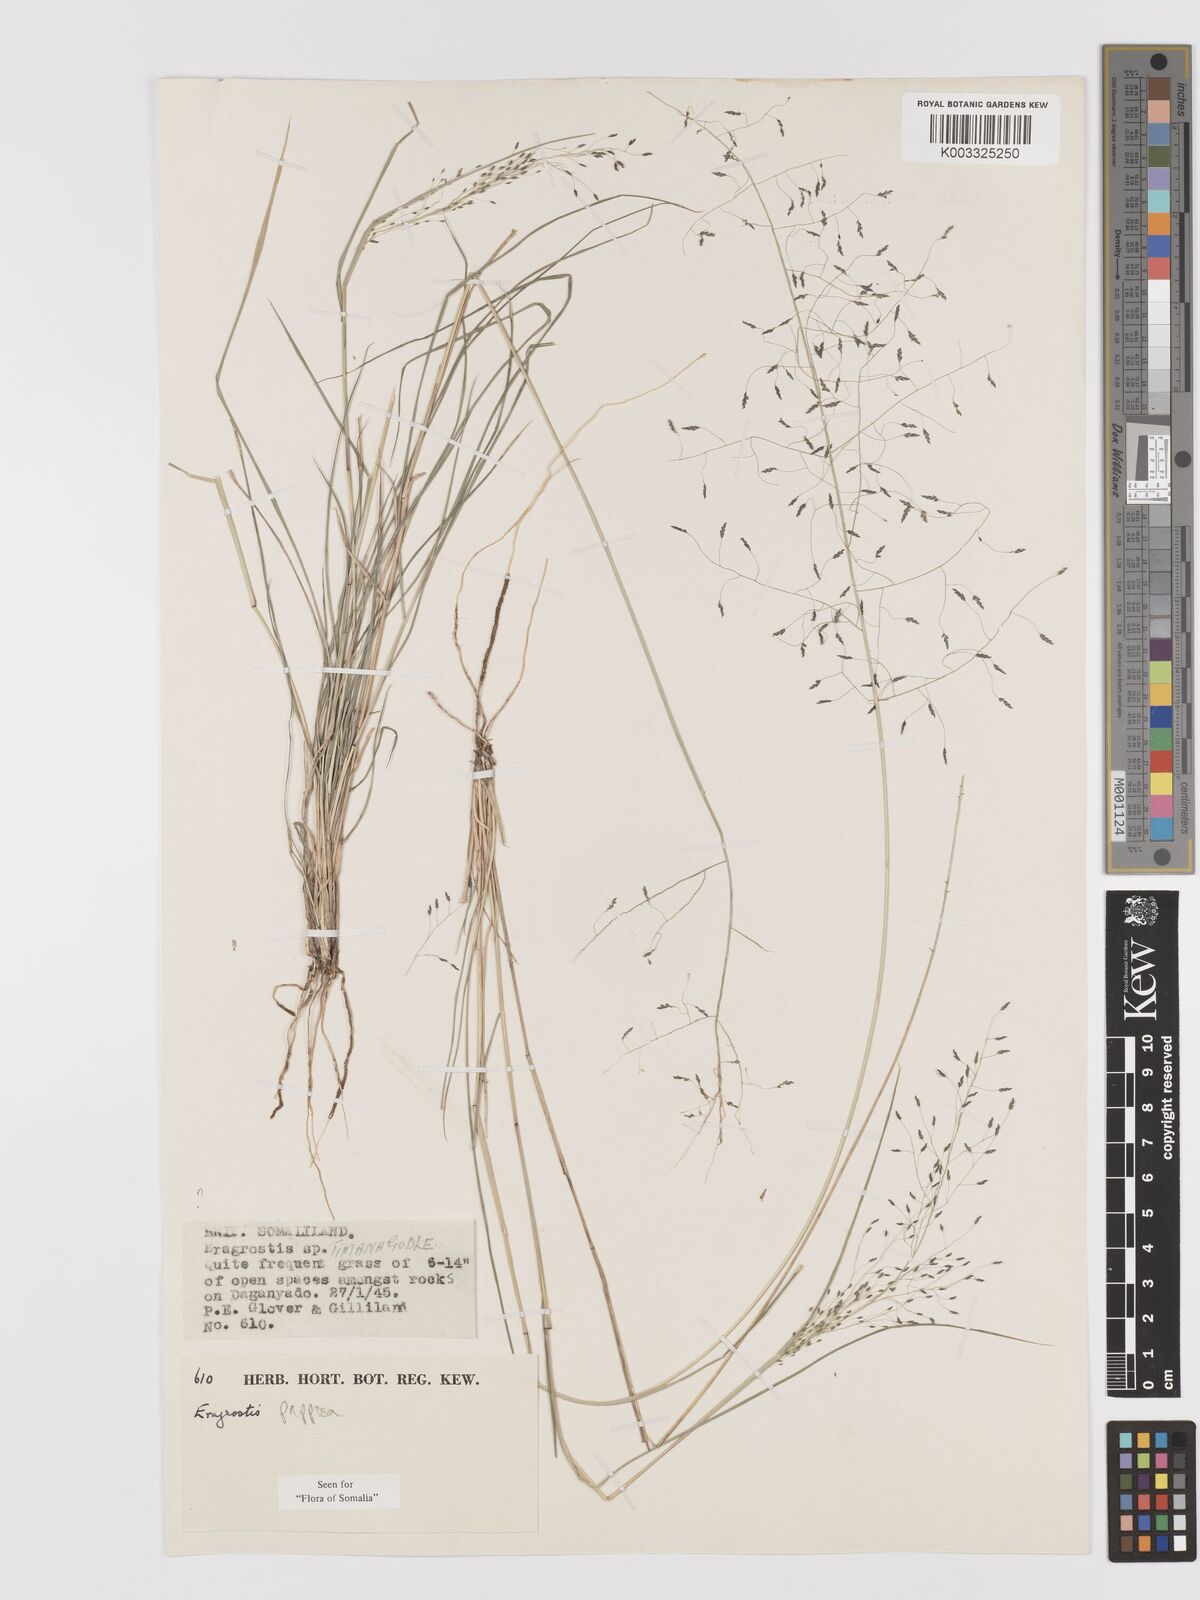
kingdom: Plantae
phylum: Tracheophyta
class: Liliopsida
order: Poales
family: Poaceae
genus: Eragrostis
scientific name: Eragrostis papposa
